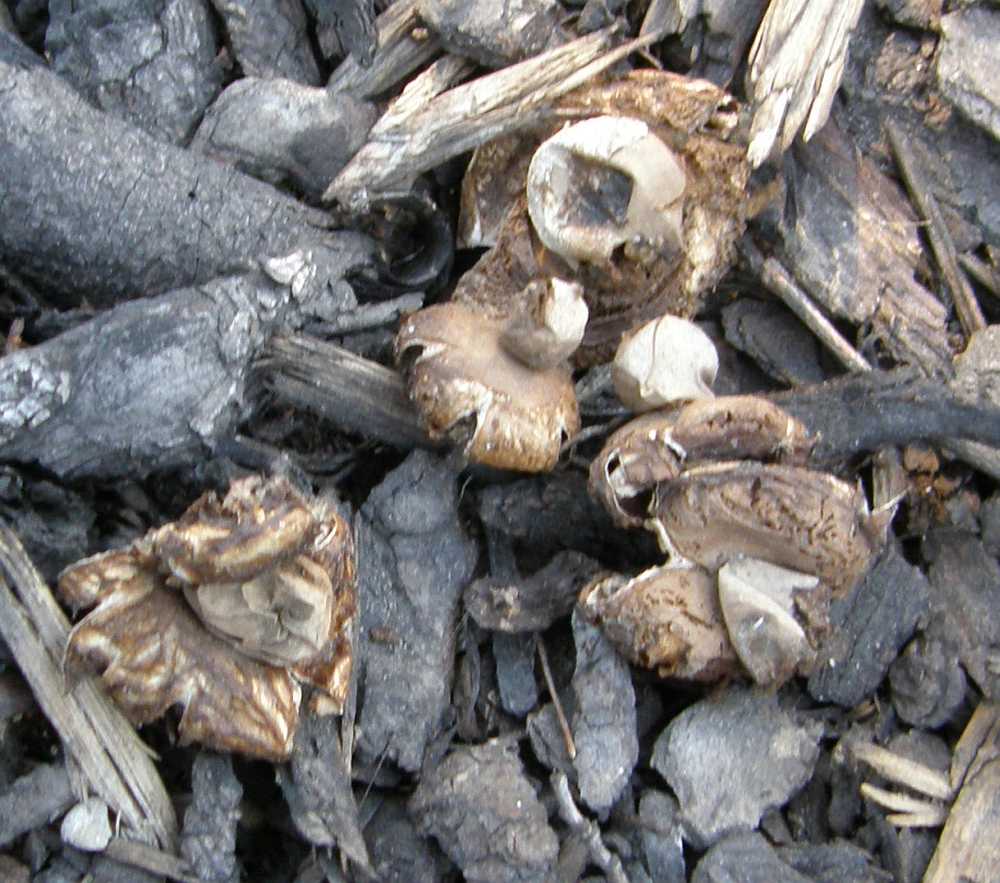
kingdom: Fungi
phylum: Basidiomycota
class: Agaricomycetes
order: Geastrales
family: Geastraceae
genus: Geastrum
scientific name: Geastrum fimbriatum
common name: frynset stjernebold
